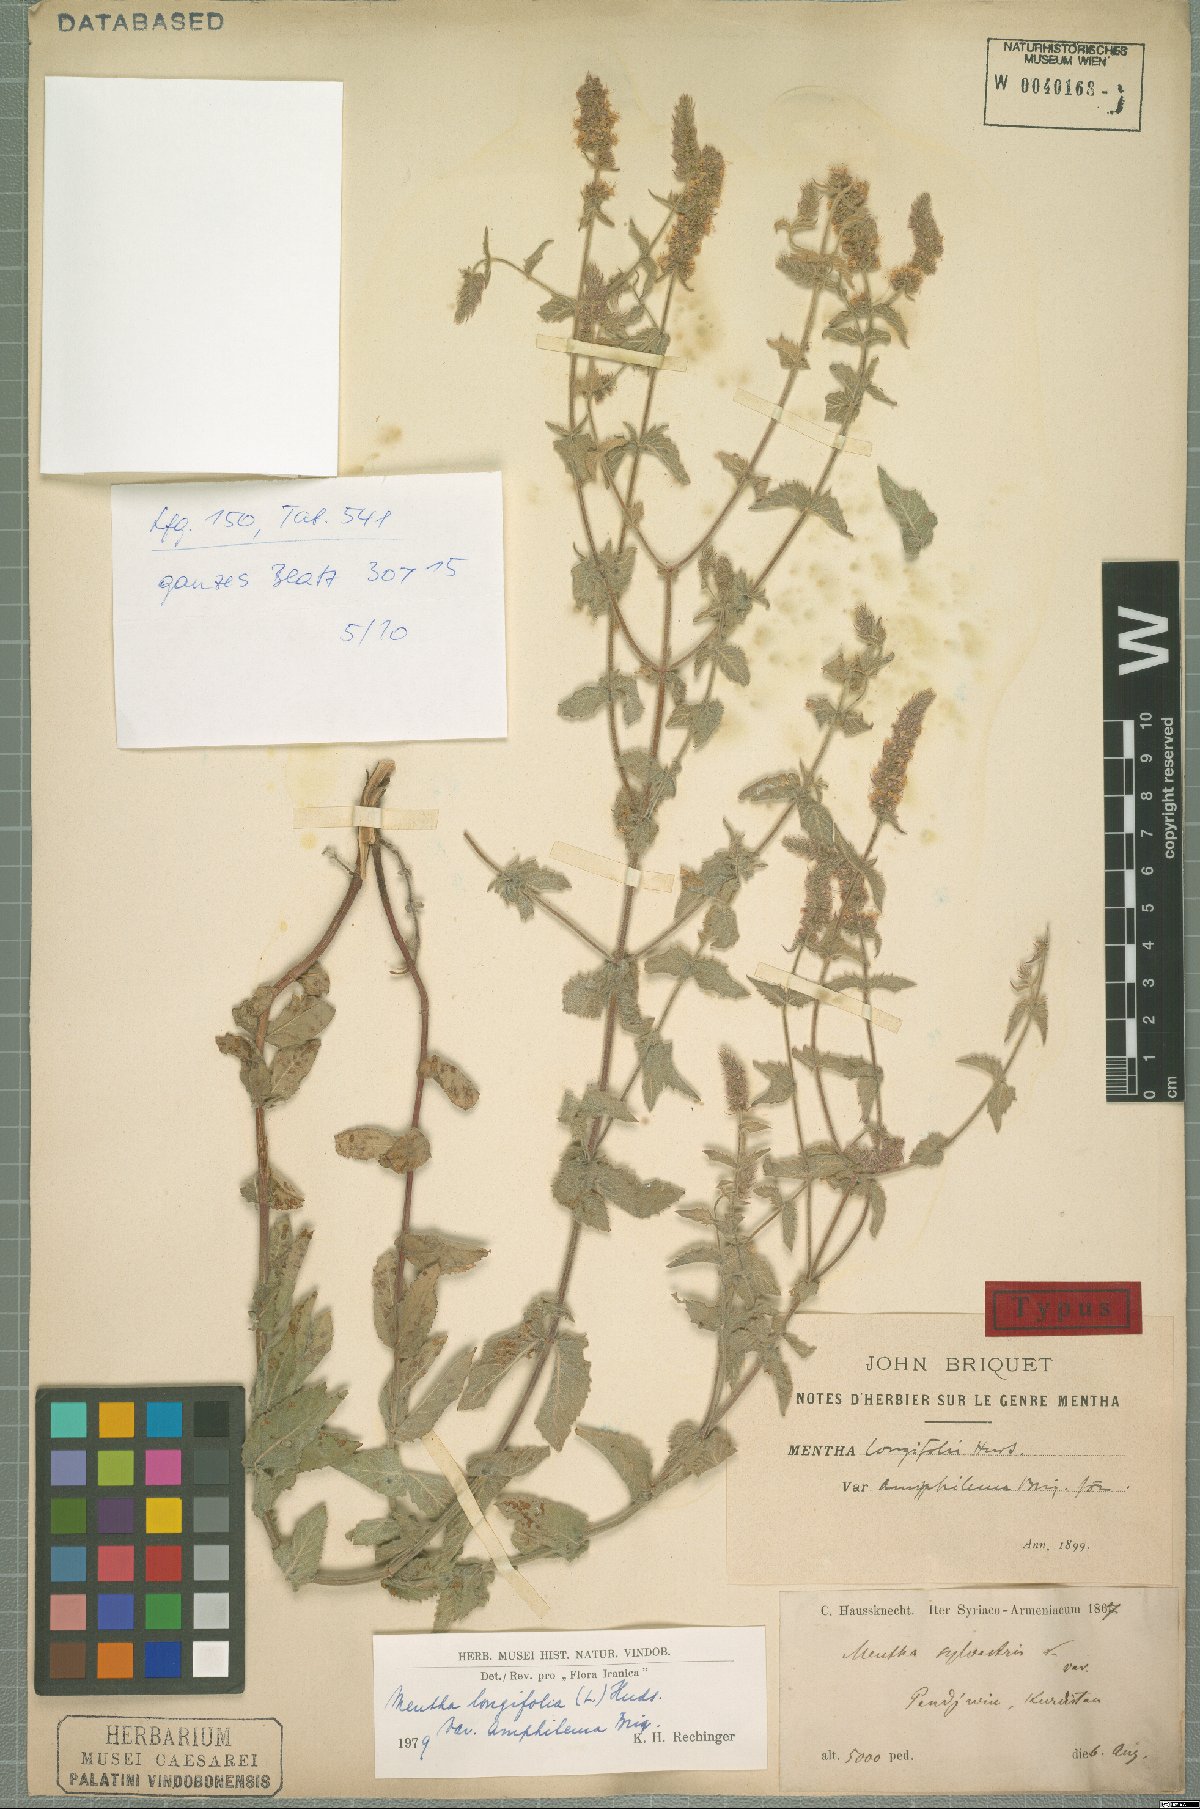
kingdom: Plantae
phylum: Tracheophyta
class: Magnoliopsida
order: Lamiales
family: Lamiaceae
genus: Mentha
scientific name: Mentha longifolia
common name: Horse mint
